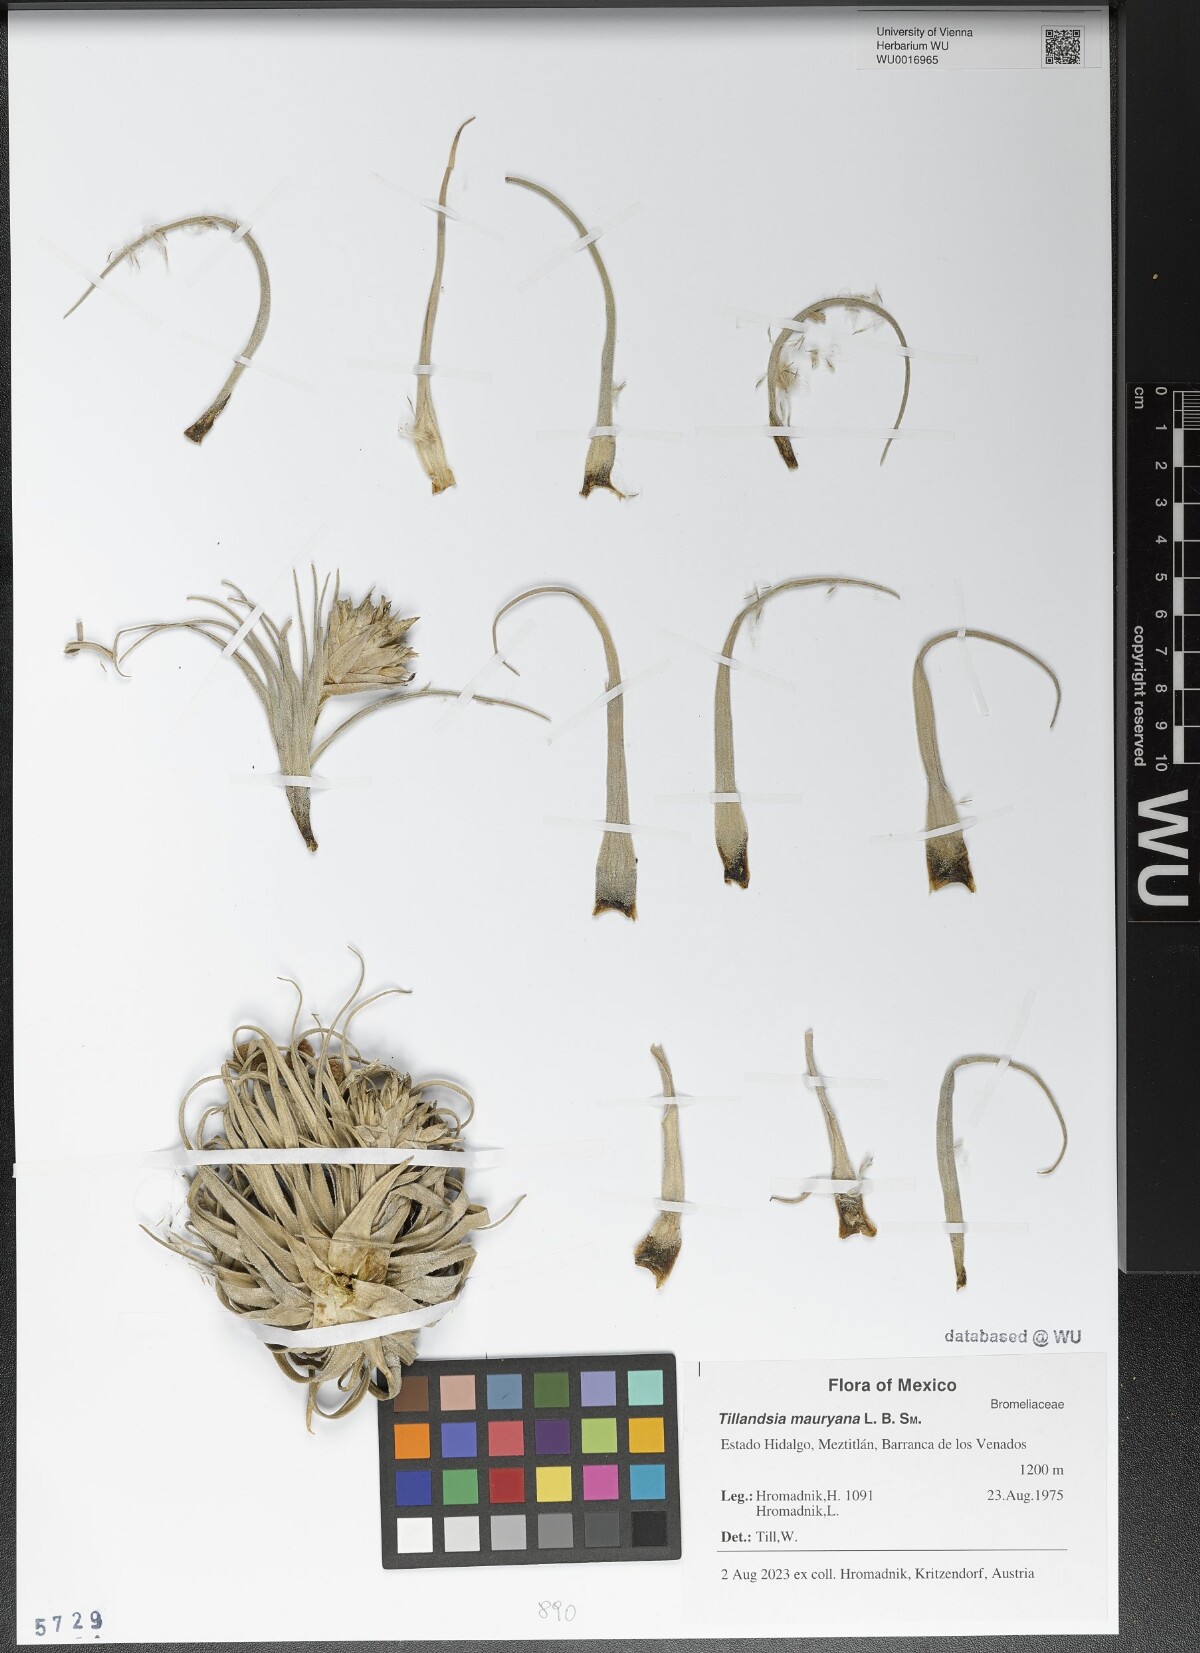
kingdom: Plantae
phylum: Tracheophyta
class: Liliopsida
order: Poales
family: Bromeliaceae
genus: Tillandsia
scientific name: Tillandsia mauryana
